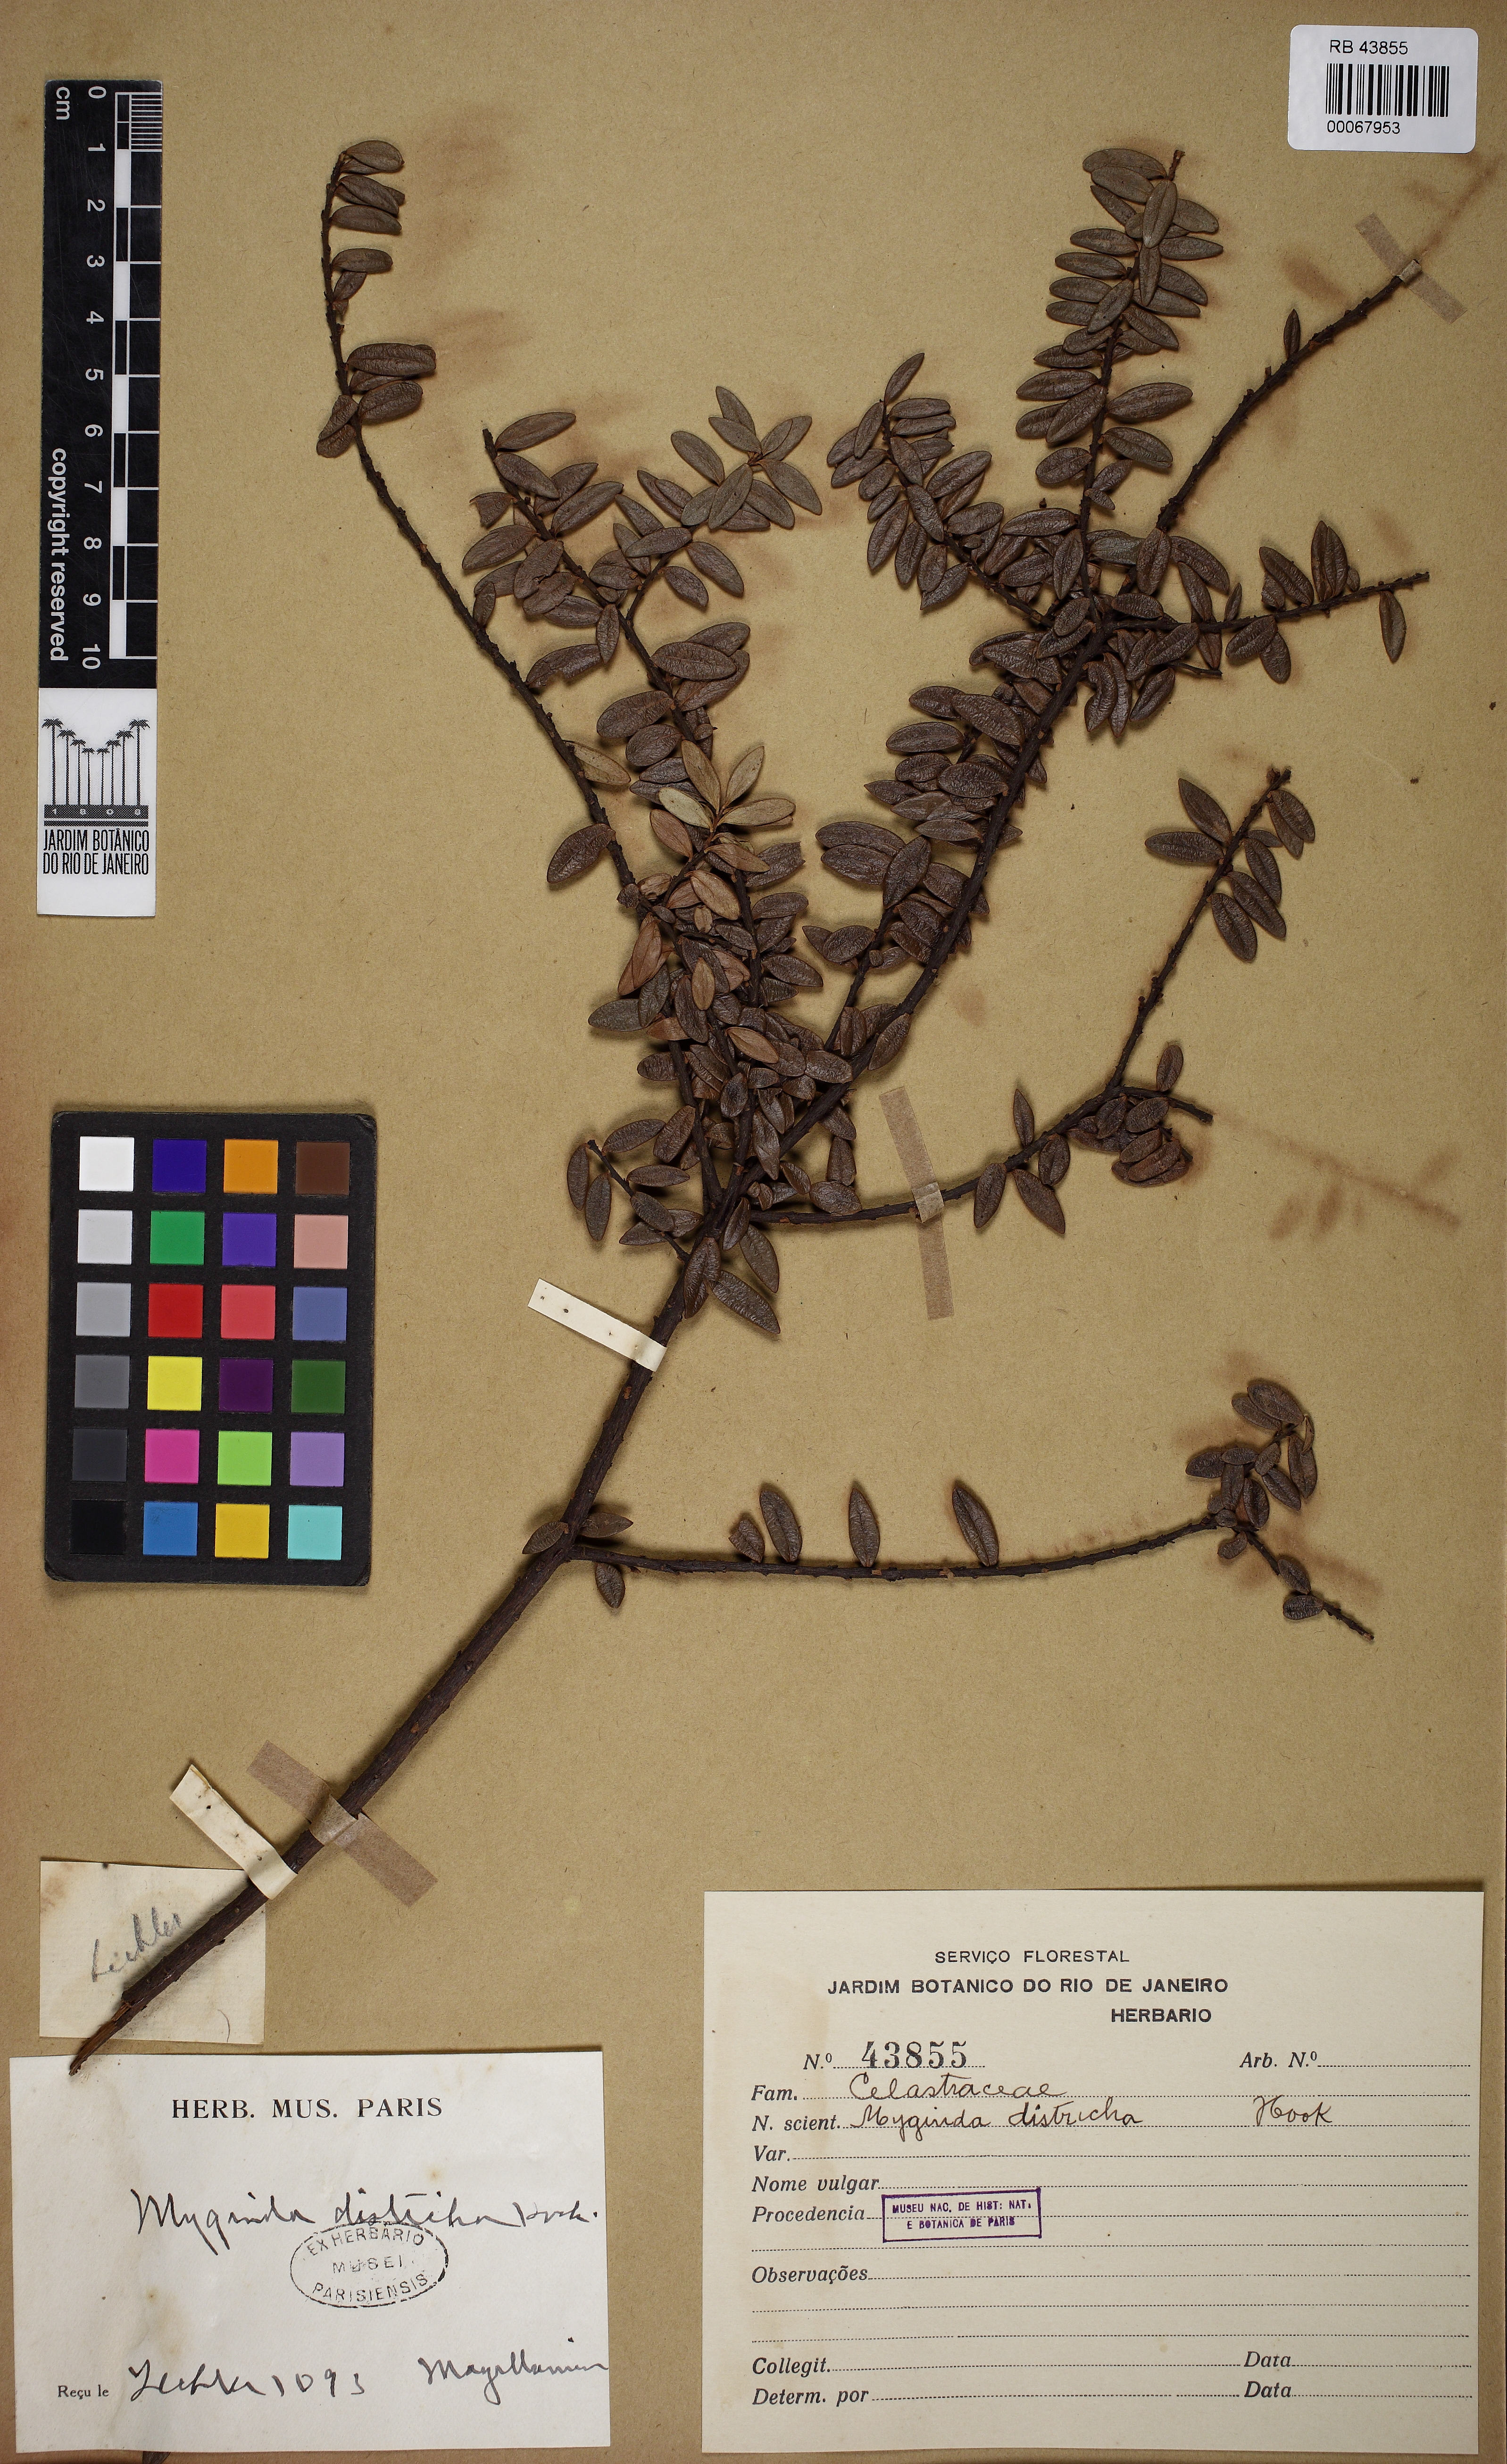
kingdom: Plantae
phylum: Tracheophyta
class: Magnoliopsida
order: Celastrales
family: Celastraceae
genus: Maytenus
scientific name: Maytenus disticha
